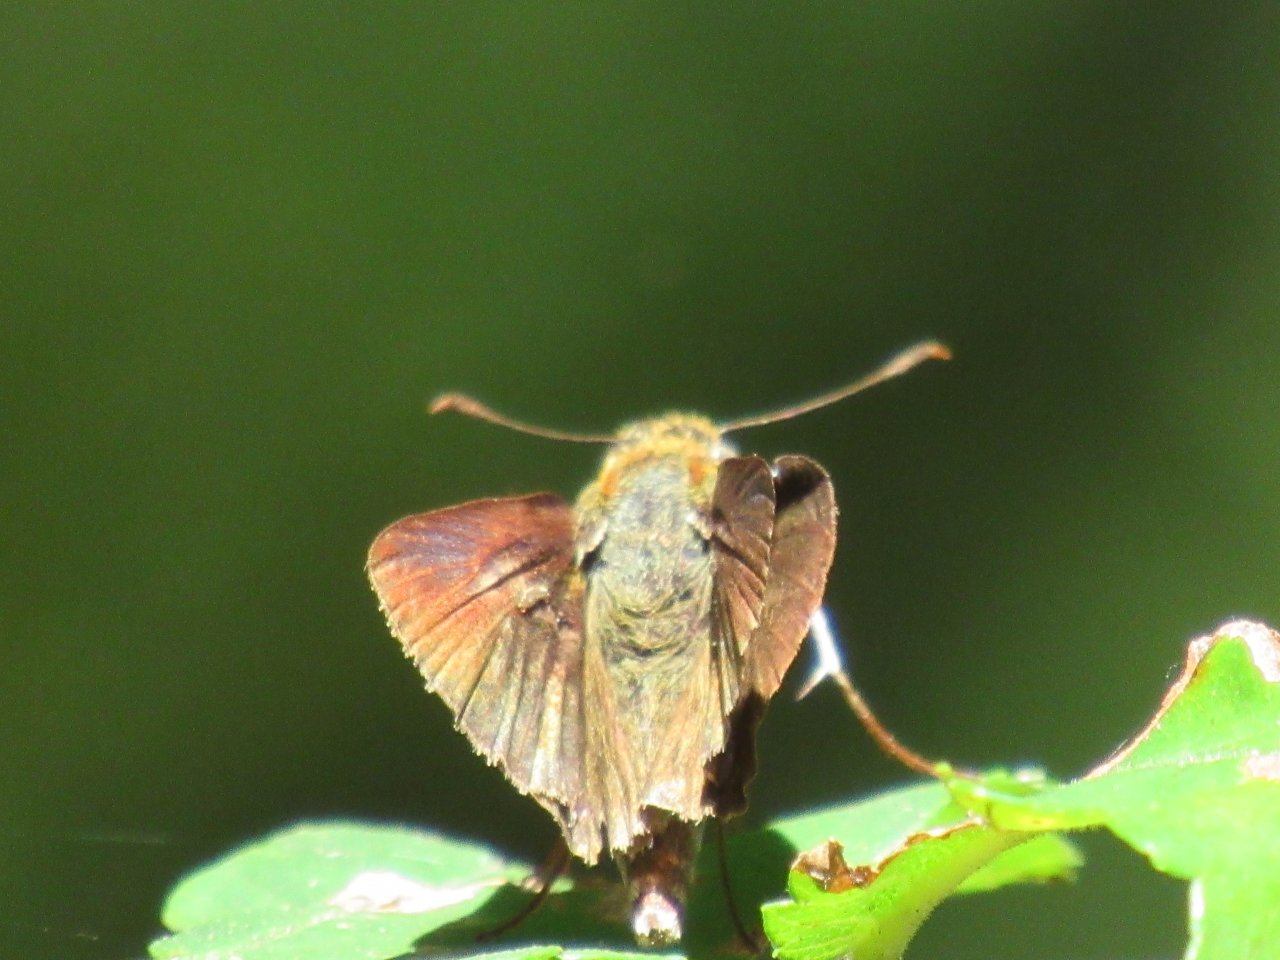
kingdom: Animalia
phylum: Arthropoda
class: Insecta
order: Lepidoptera
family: Hesperiidae
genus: Euphyes
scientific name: Euphyes vestris
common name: Dun Skipper
